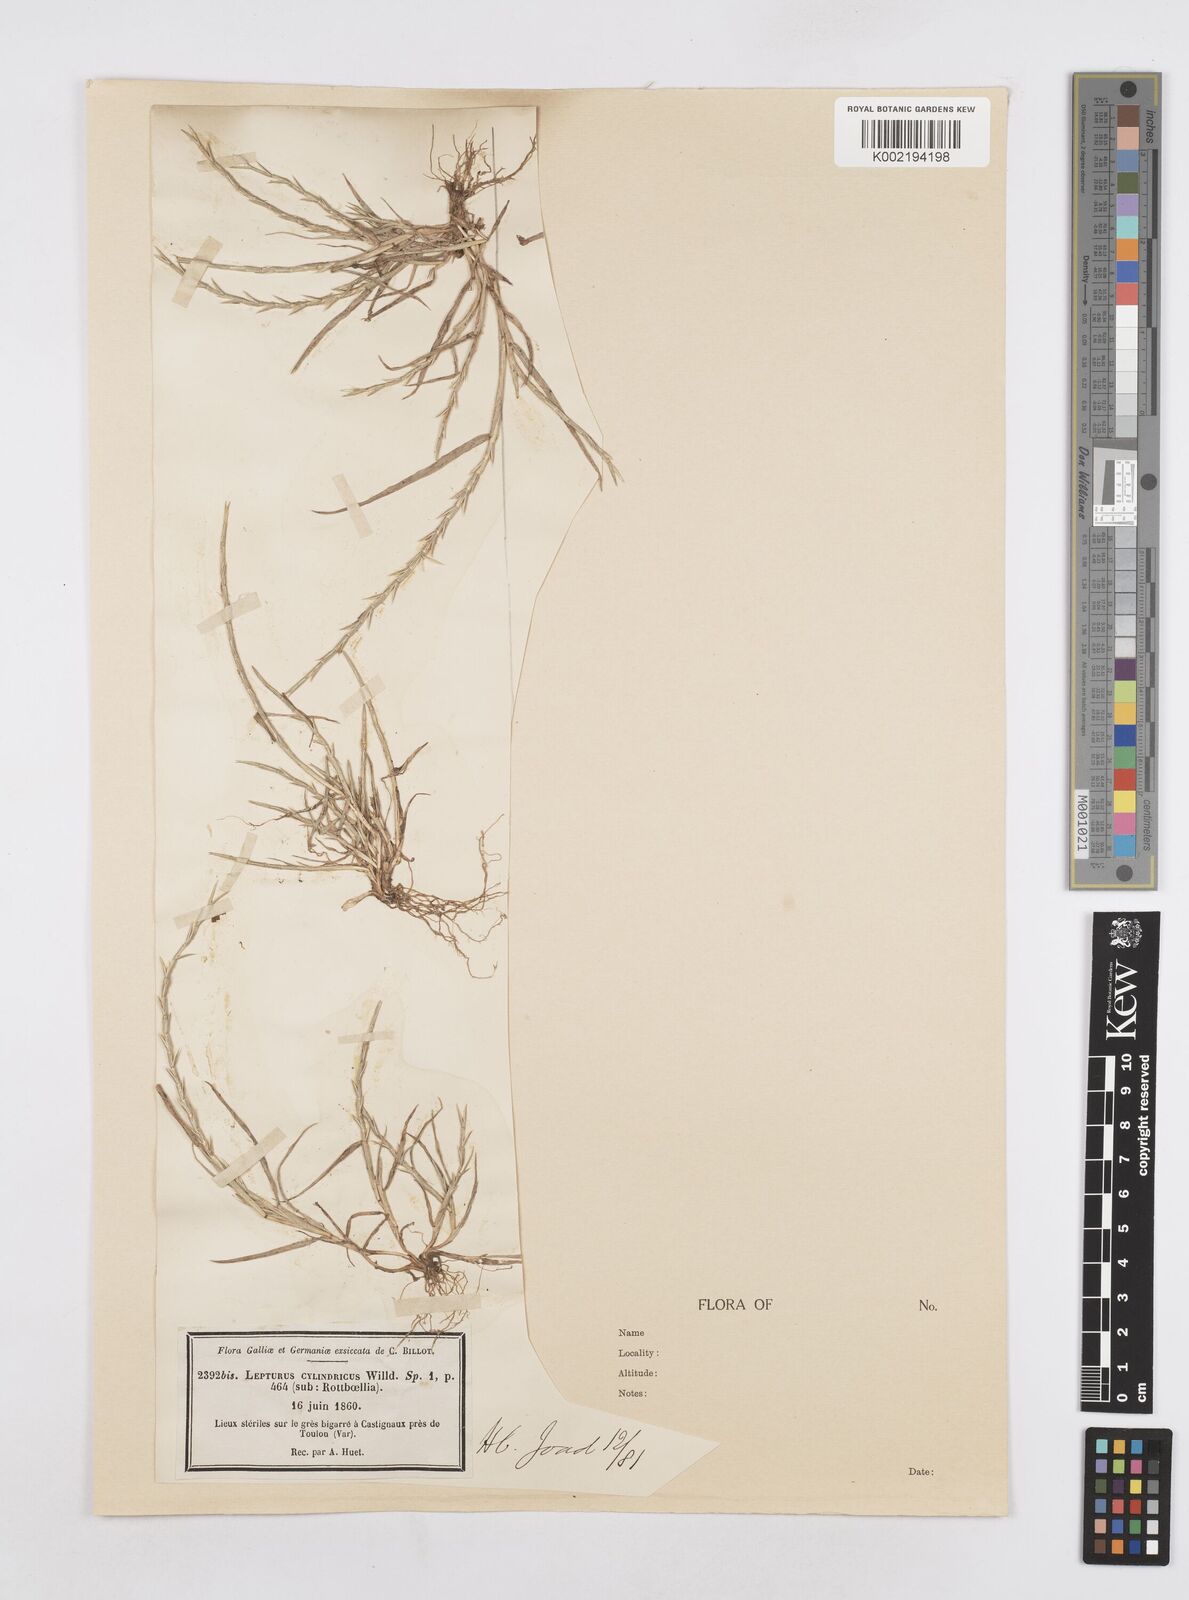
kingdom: Plantae
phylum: Tracheophyta
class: Liliopsida
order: Poales
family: Poaceae
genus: Parapholis
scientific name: Parapholis cylindrica
